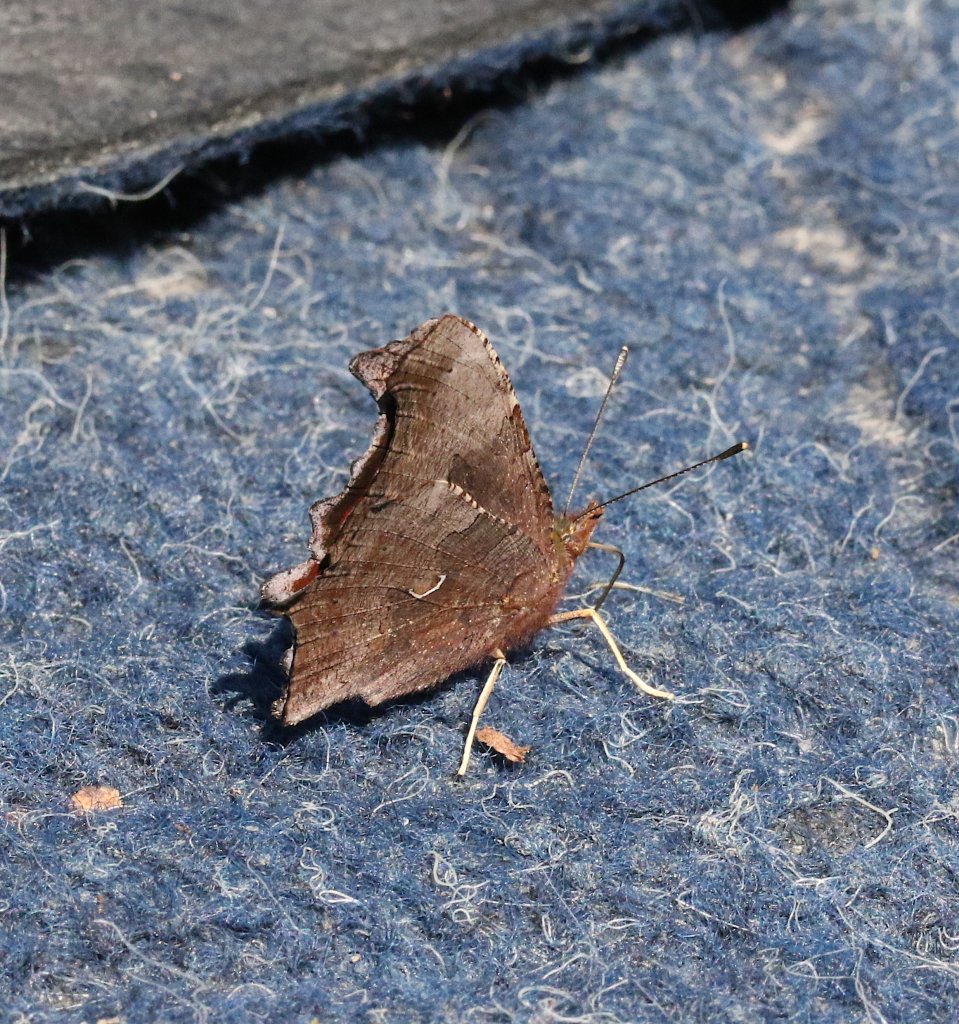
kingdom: Animalia
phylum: Arthropoda
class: Insecta
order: Lepidoptera
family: Nymphalidae
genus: Polygonia
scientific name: Polygonia comma
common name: Eastern Comma
